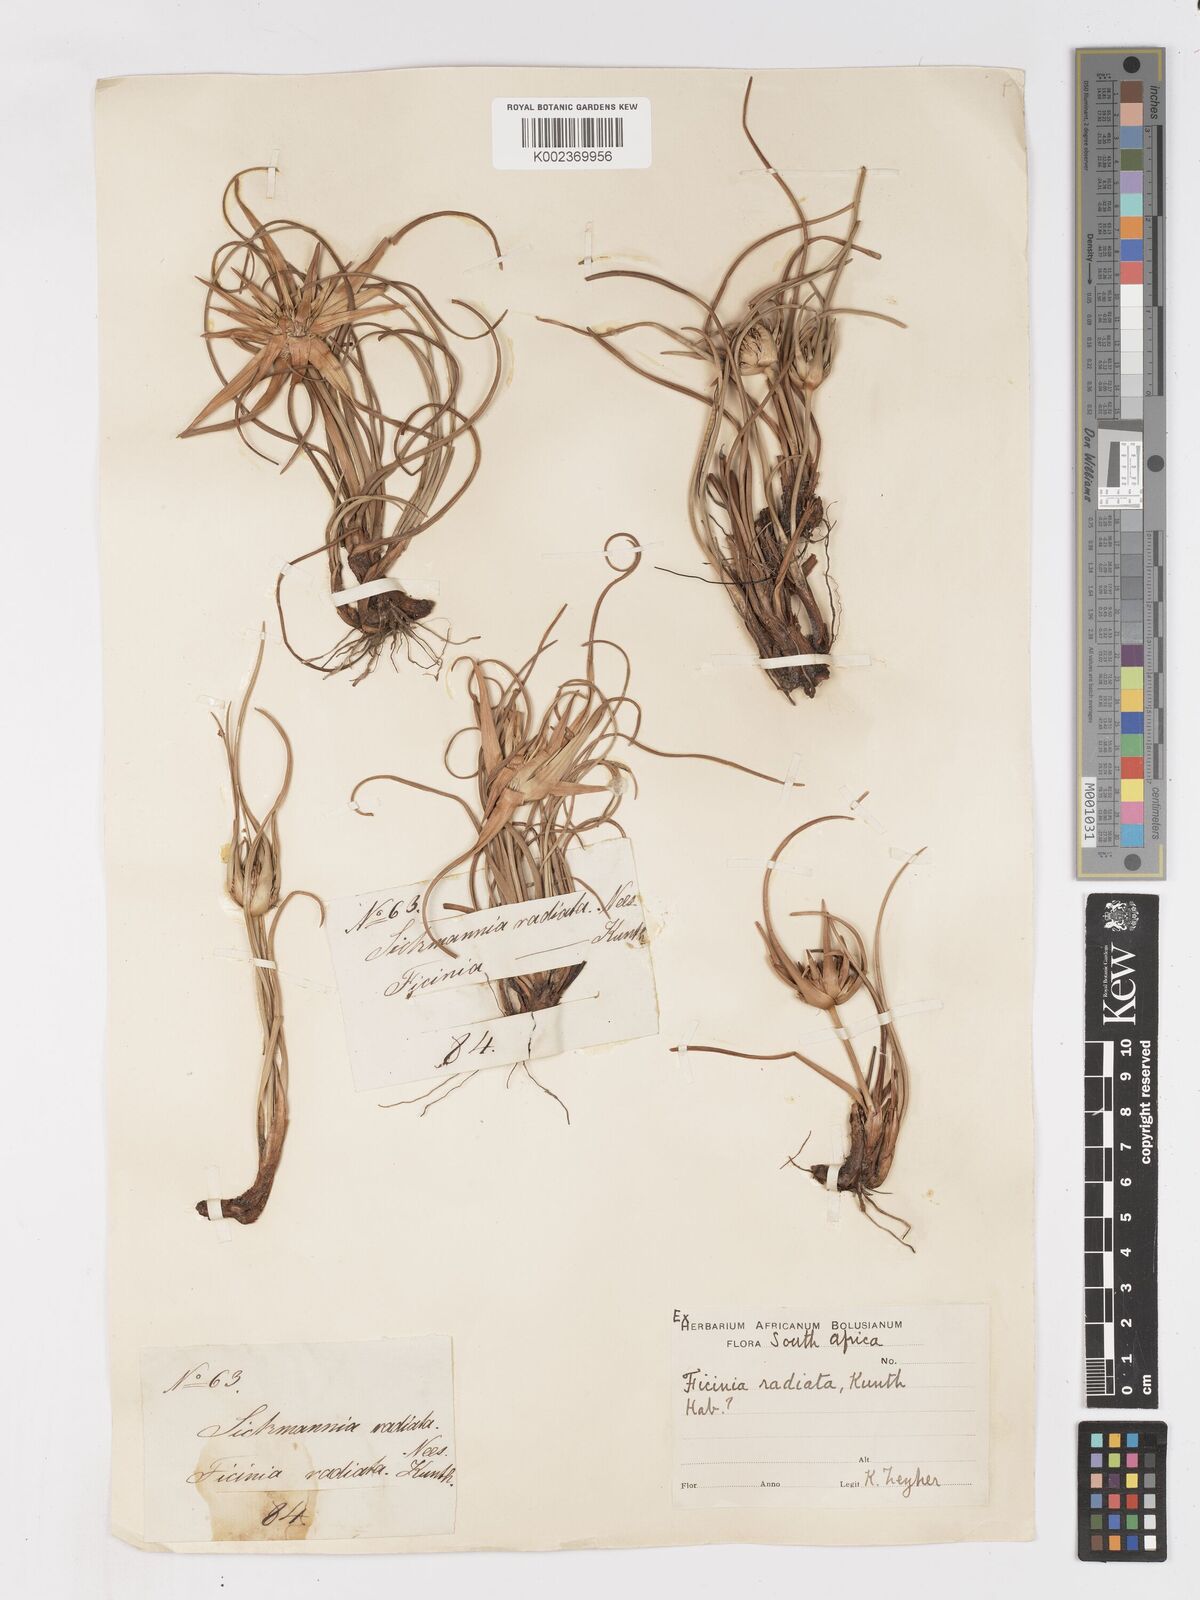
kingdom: Plantae
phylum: Tracheophyta
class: Liliopsida
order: Poales
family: Cyperaceae
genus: Ficinia
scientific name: Ficinia radiata
